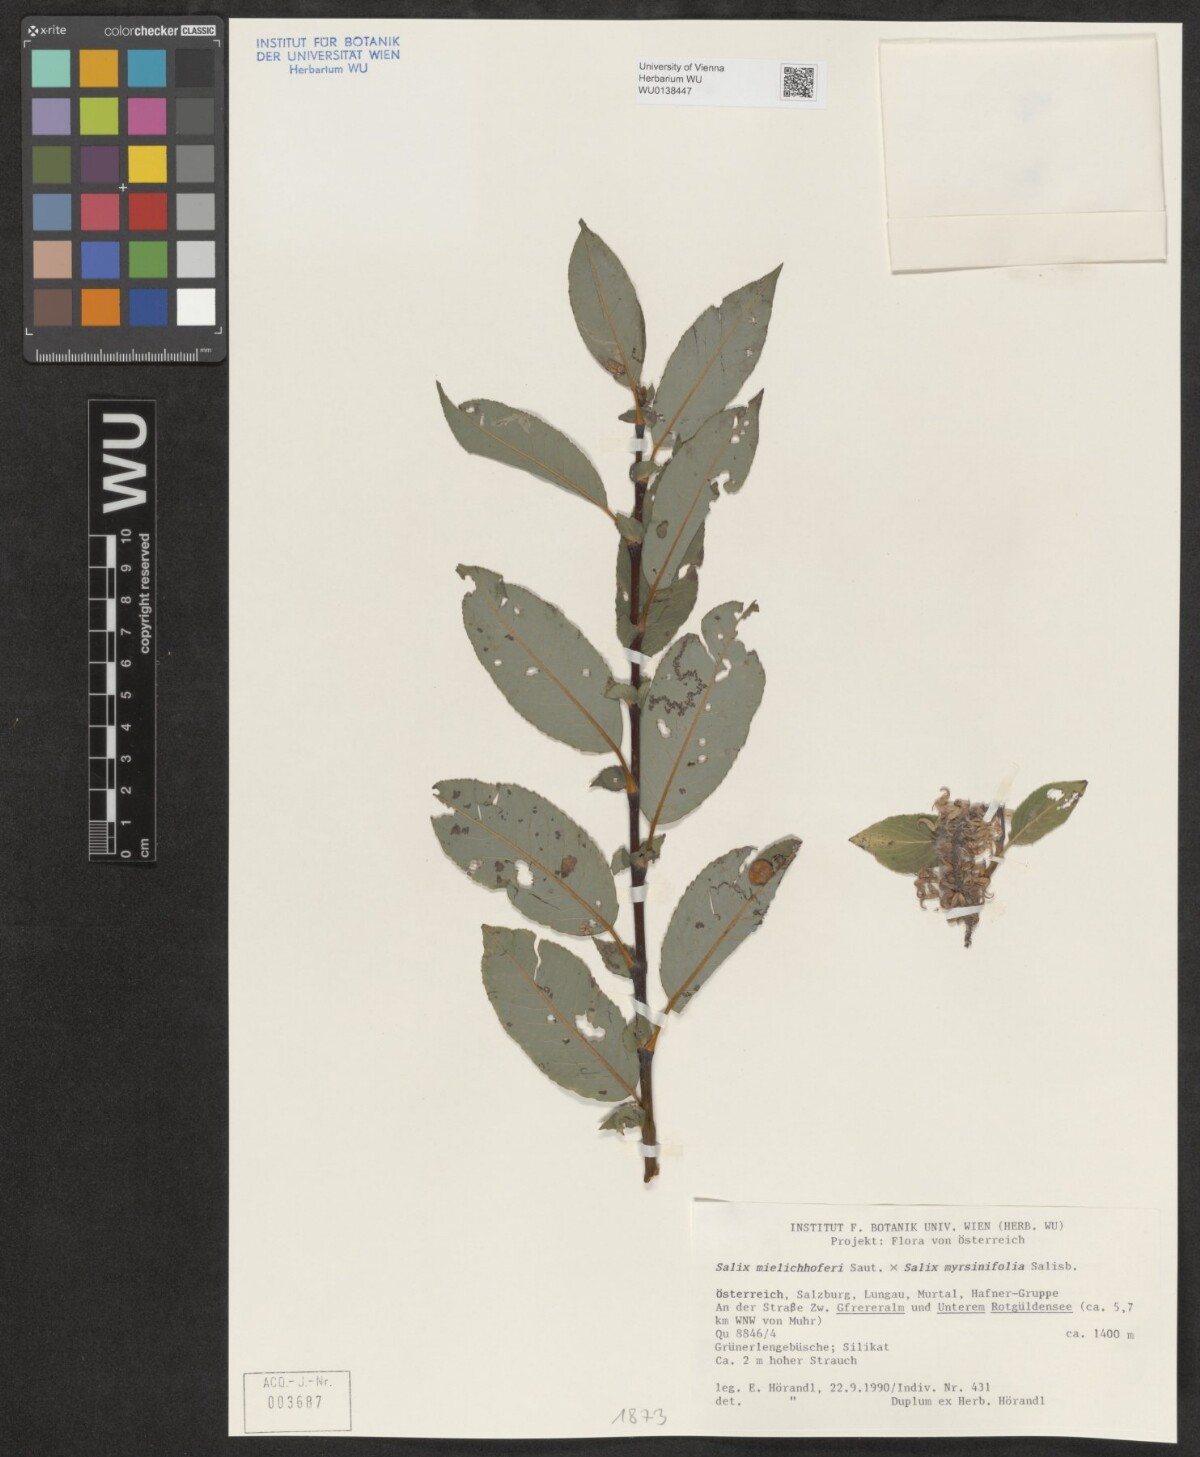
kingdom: Plantae
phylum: Tracheophyta
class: Magnoliopsida
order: Malpighiales
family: Salicaceae
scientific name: Salicaceae
